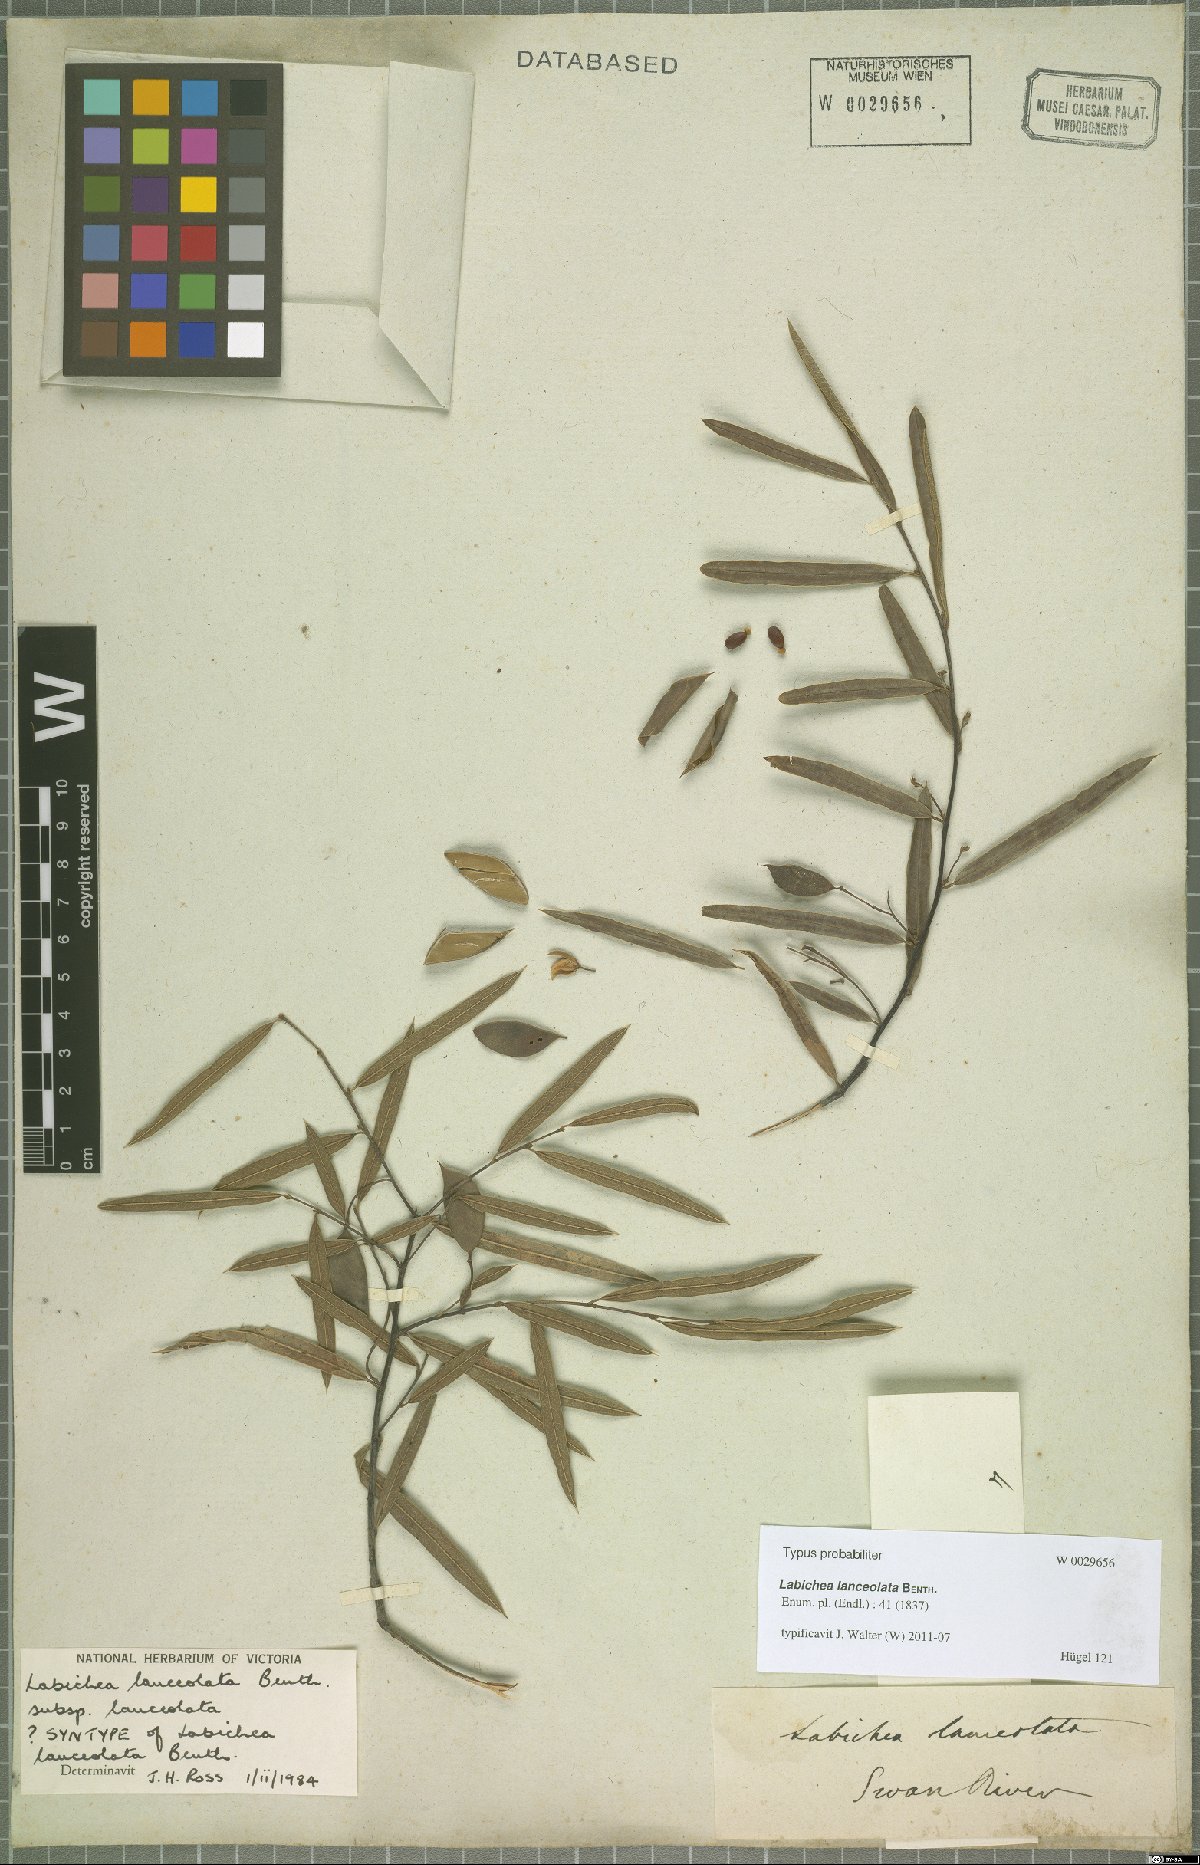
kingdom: Plantae
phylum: Tracheophyta
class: Magnoliopsida
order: Fabales
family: Fabaceae
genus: Labichea
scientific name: Labichea lanceolata
